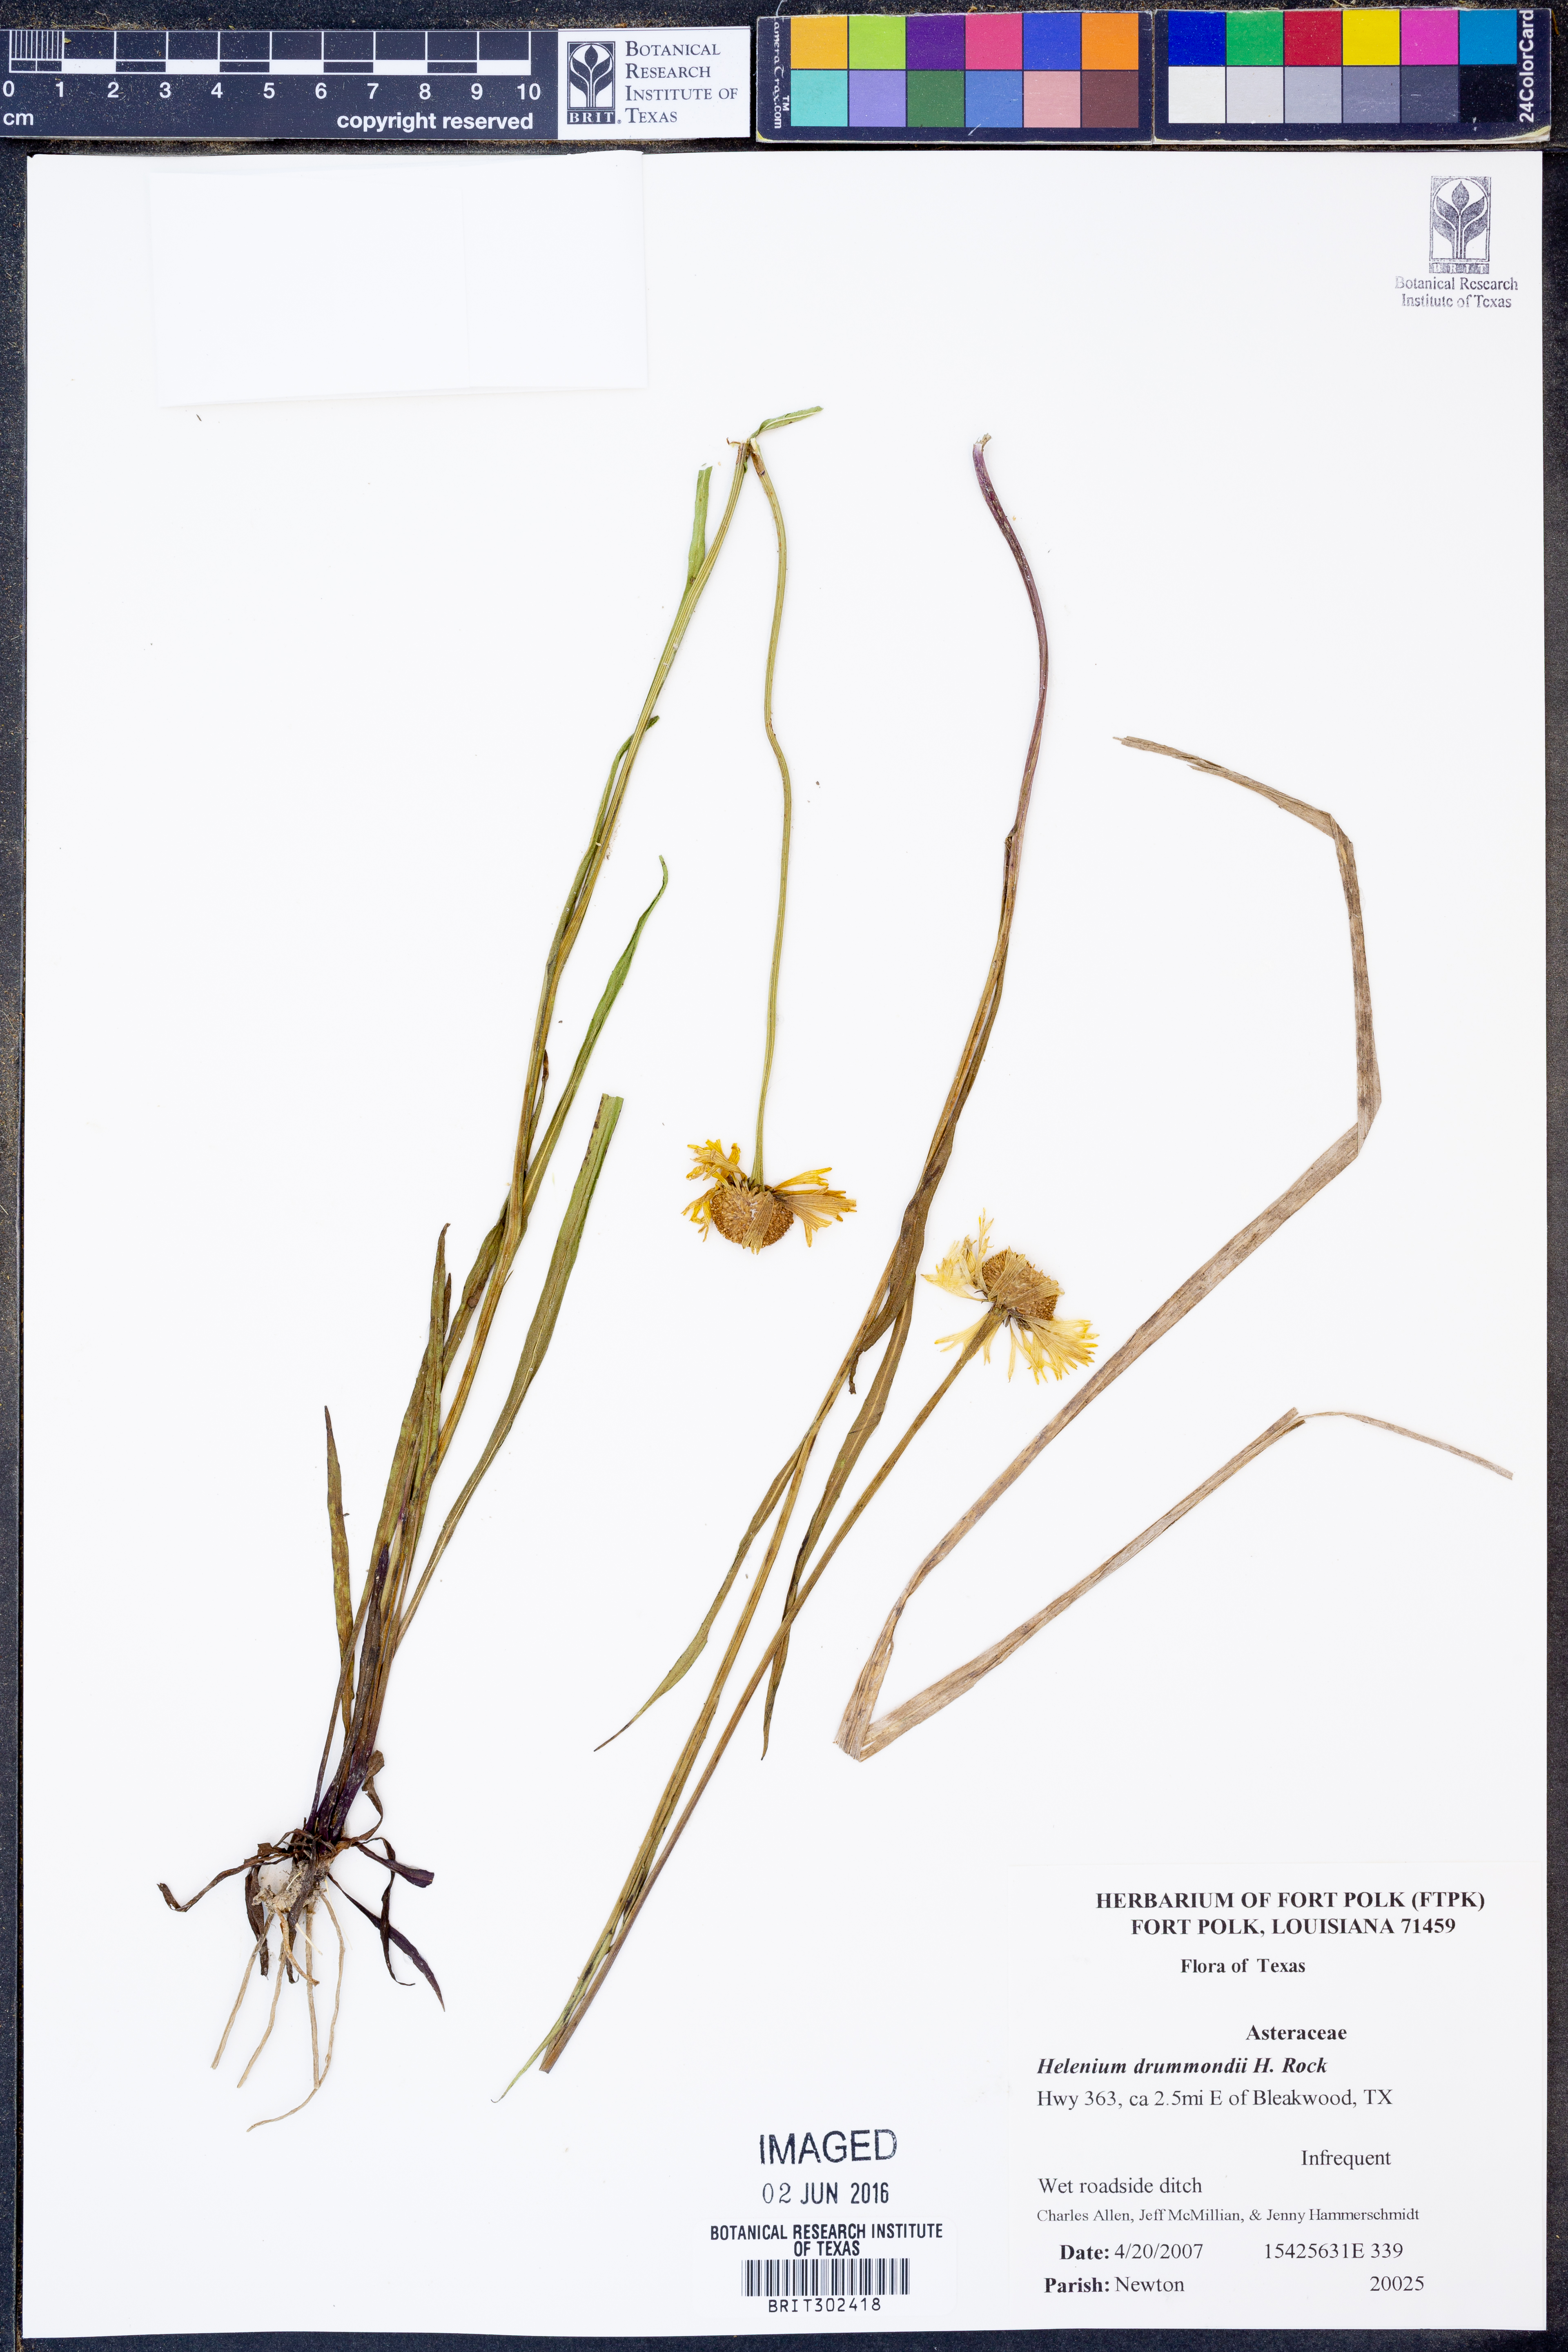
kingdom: Plantae
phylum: Tracheophyta
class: Magnoliopsida
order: Asterales
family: Asteraceae
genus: Helenium
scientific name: Helenium drummondii
